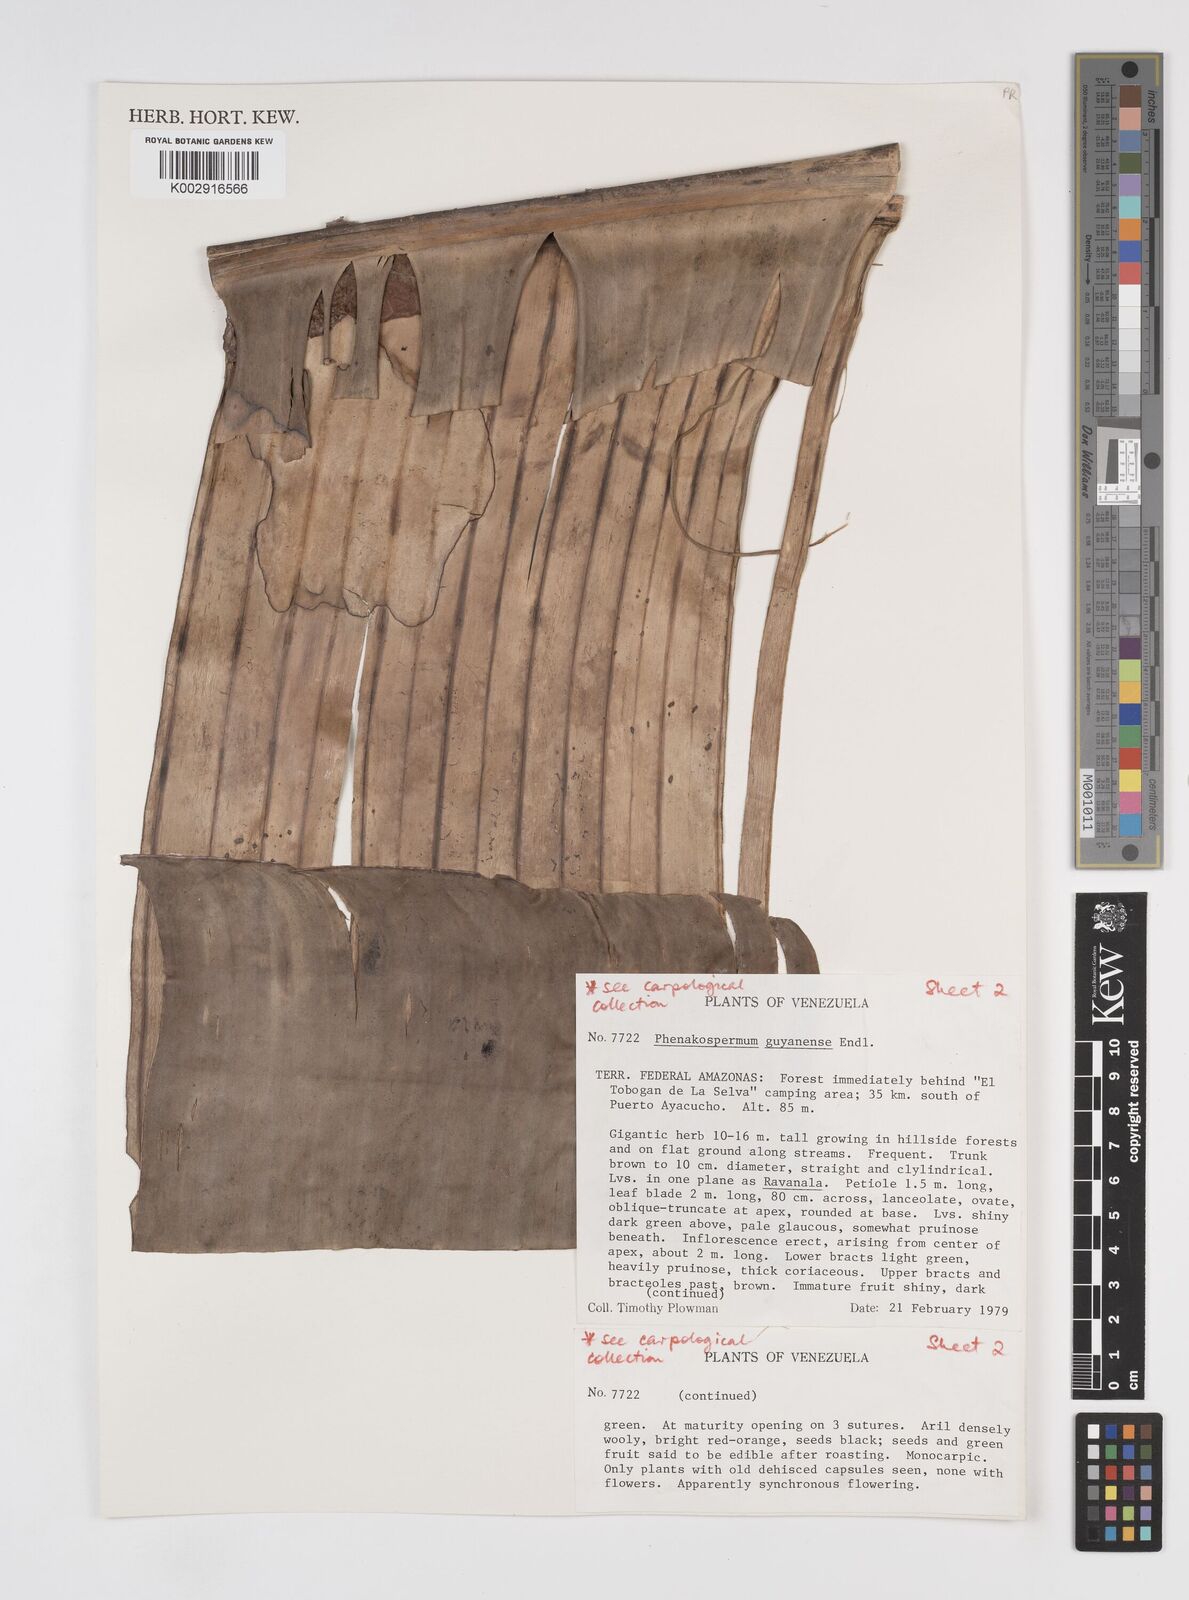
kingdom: Plantae
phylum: Tracheophyta
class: Liliopsida
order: Zingiberales
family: Strelitziaceae
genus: Phenakospermum
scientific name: Phenakospermum guyannense
